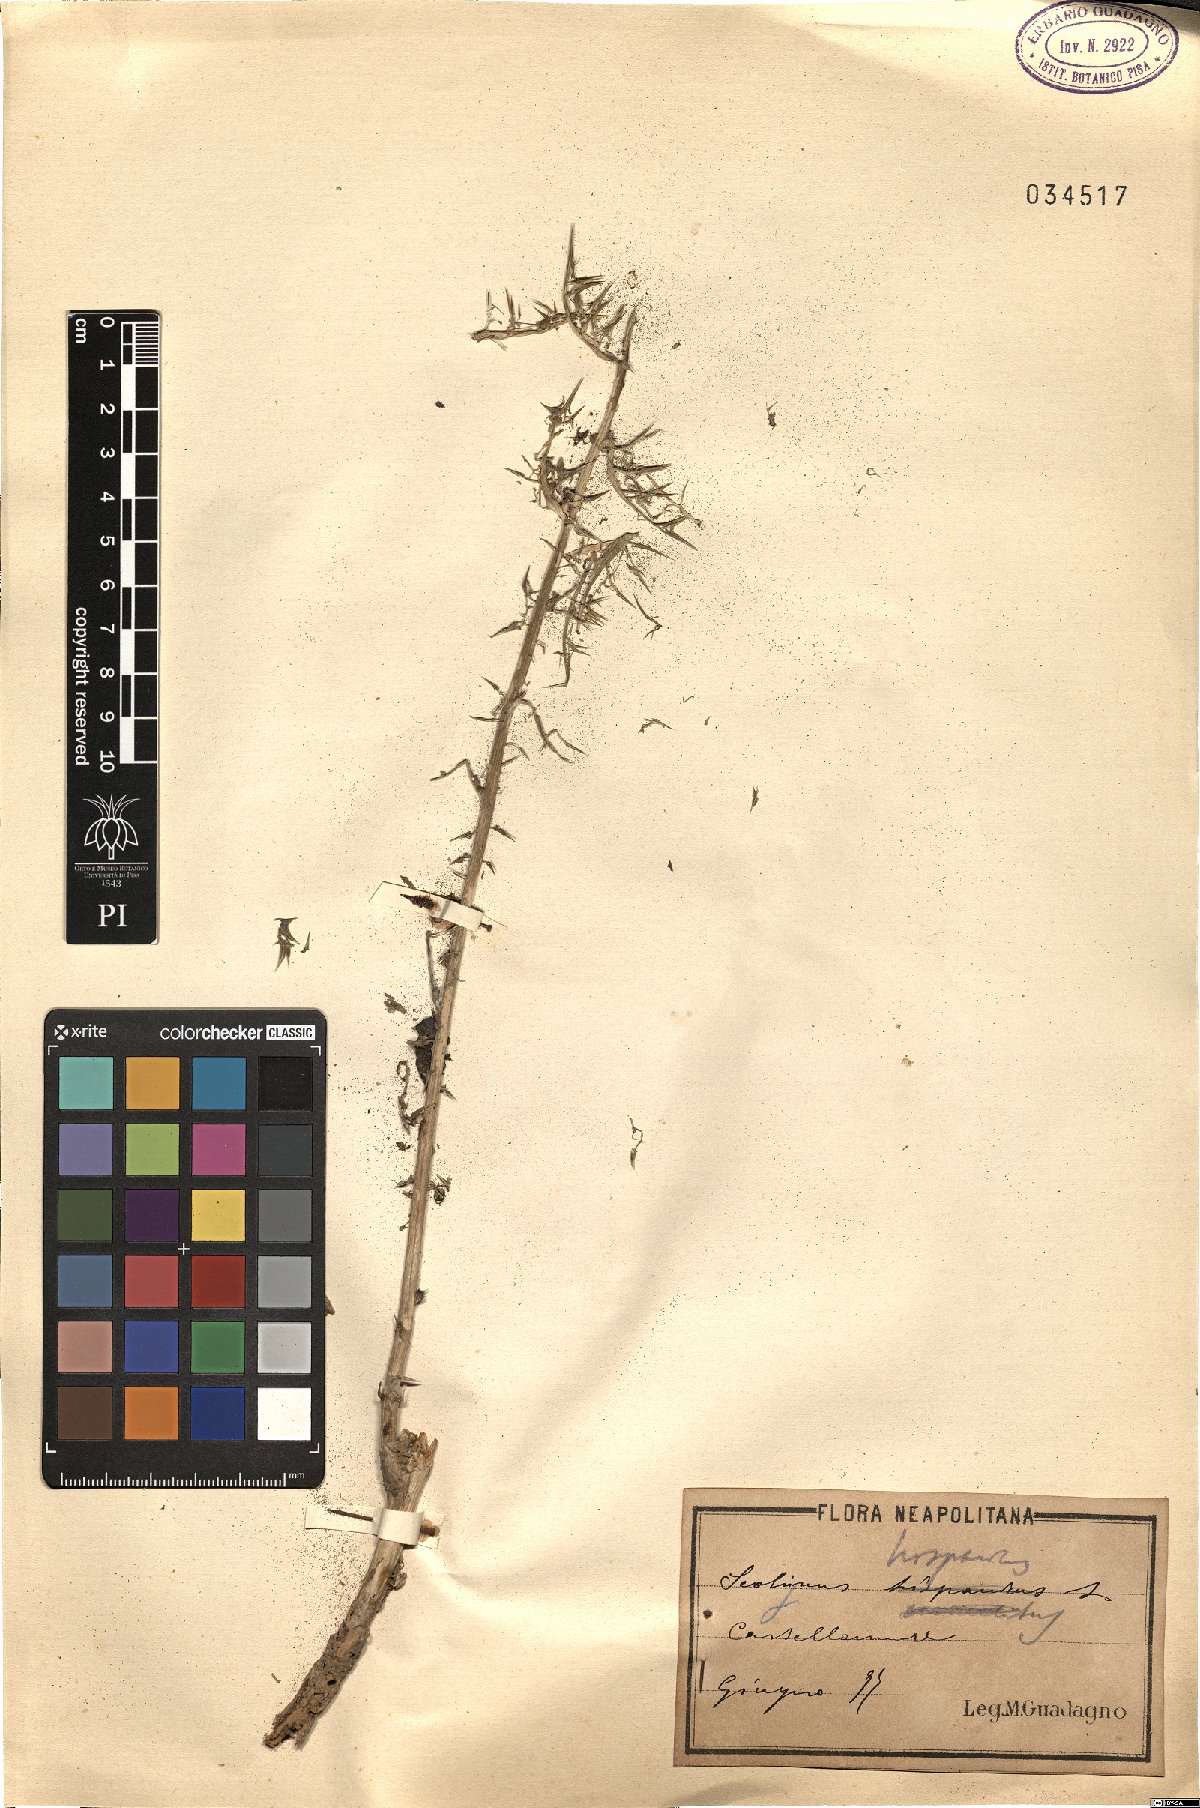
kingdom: Plantae
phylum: Tracheophyta
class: Magnoliopsida
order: Asterales
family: Asteraceae
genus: Scolymus
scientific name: Scolymus hispanicus
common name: Golden thistle
